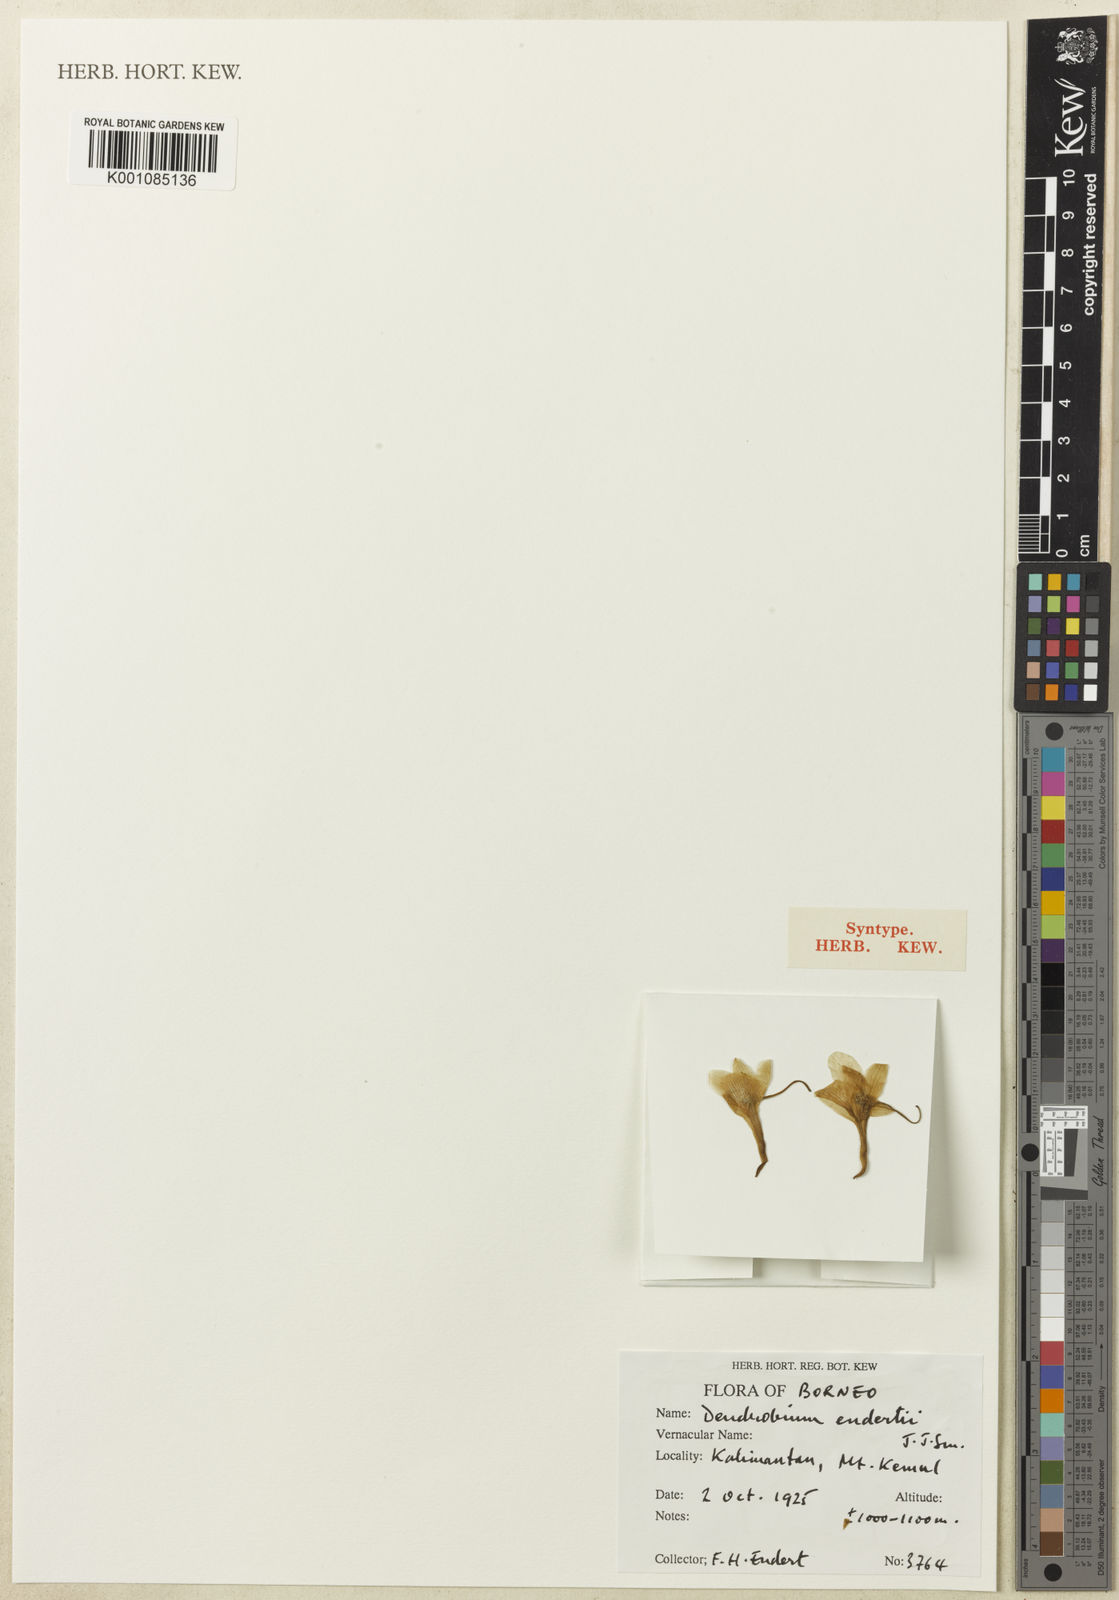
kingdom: Plantae
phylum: Tracheophyta
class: Liliopsida
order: Asparagales
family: Orchidaceae
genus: Dendrobium
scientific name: Dendrobium endertii
